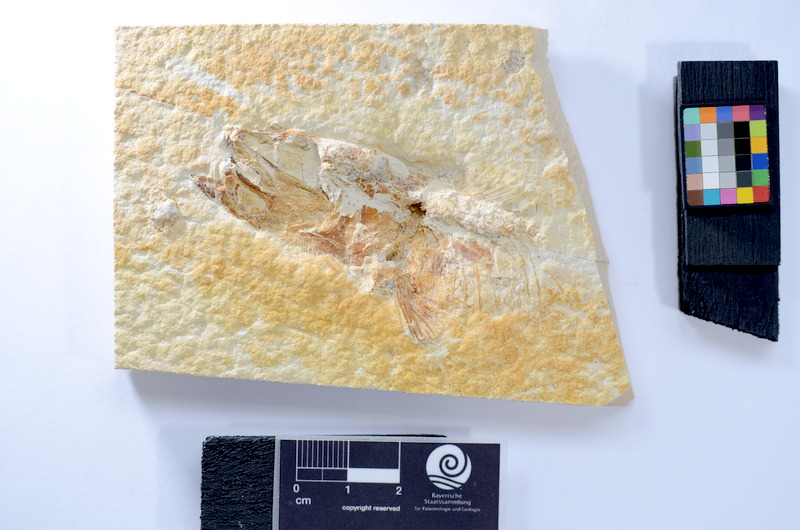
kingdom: Animalia
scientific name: Animalia
